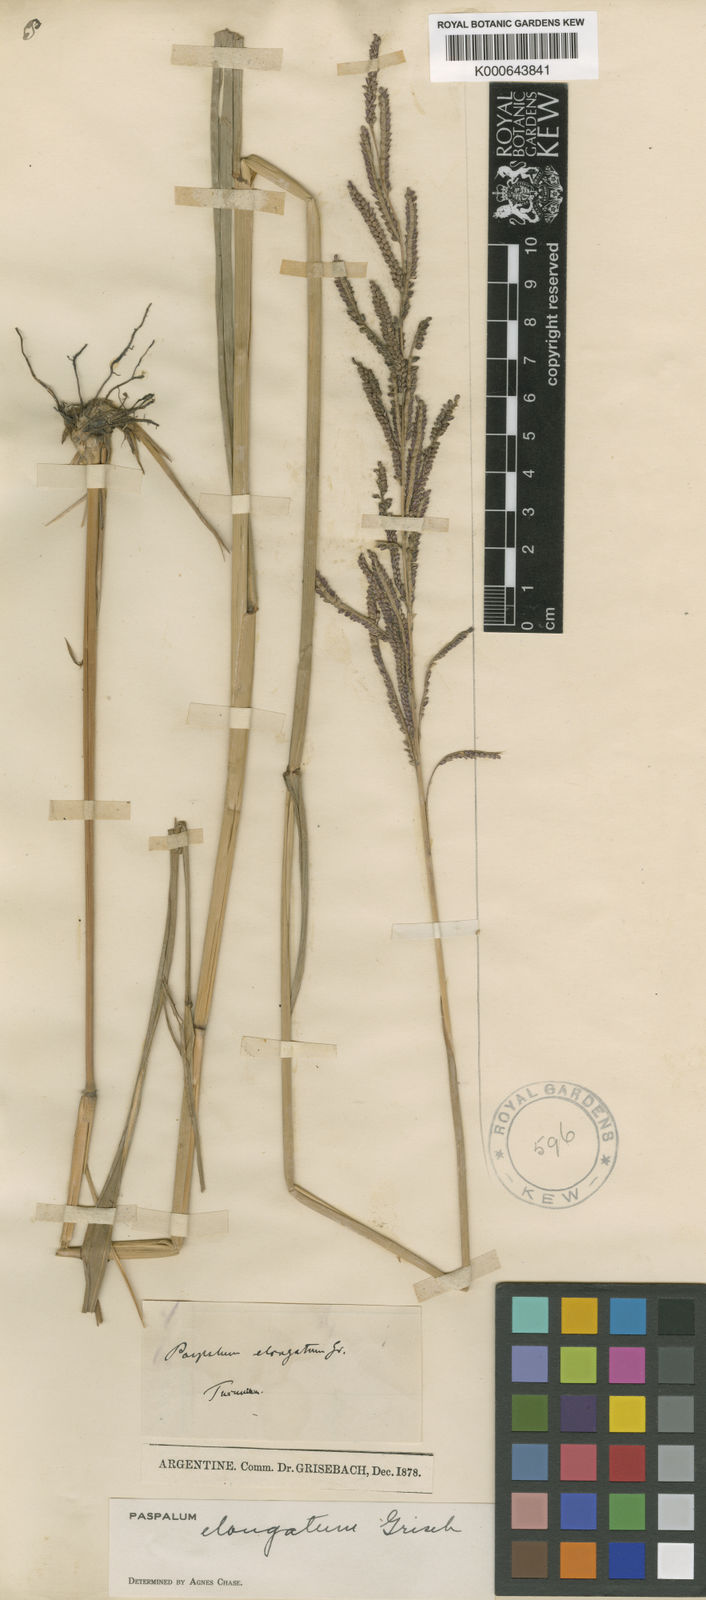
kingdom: Plantae
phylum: Tracheophyta
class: Liliopsida
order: Poales
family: Poaceae
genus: Paspalum
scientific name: Paspalum malacophyllum
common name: Ribbed paspalum
